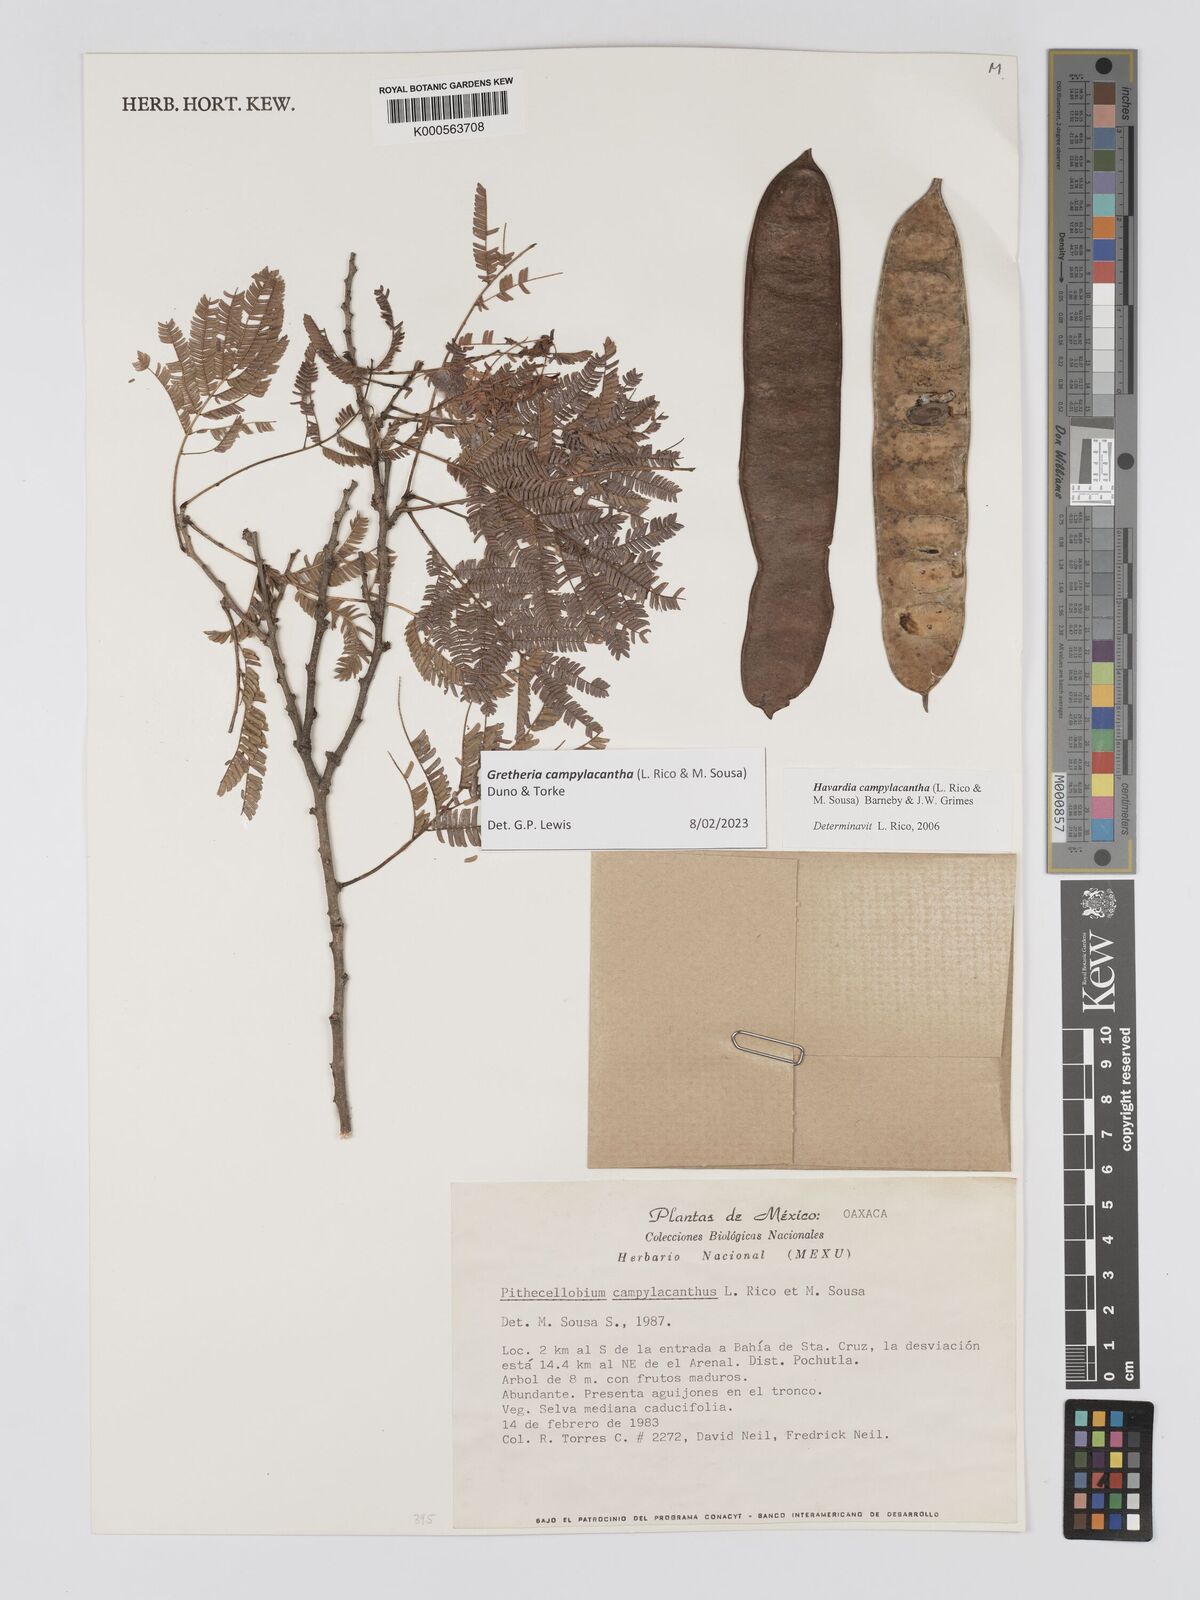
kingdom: Plantae
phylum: Tracheophyta
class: Magnoliopsida
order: Fabales
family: Fabaceae
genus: Havardia
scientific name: Havardia campylacantha
